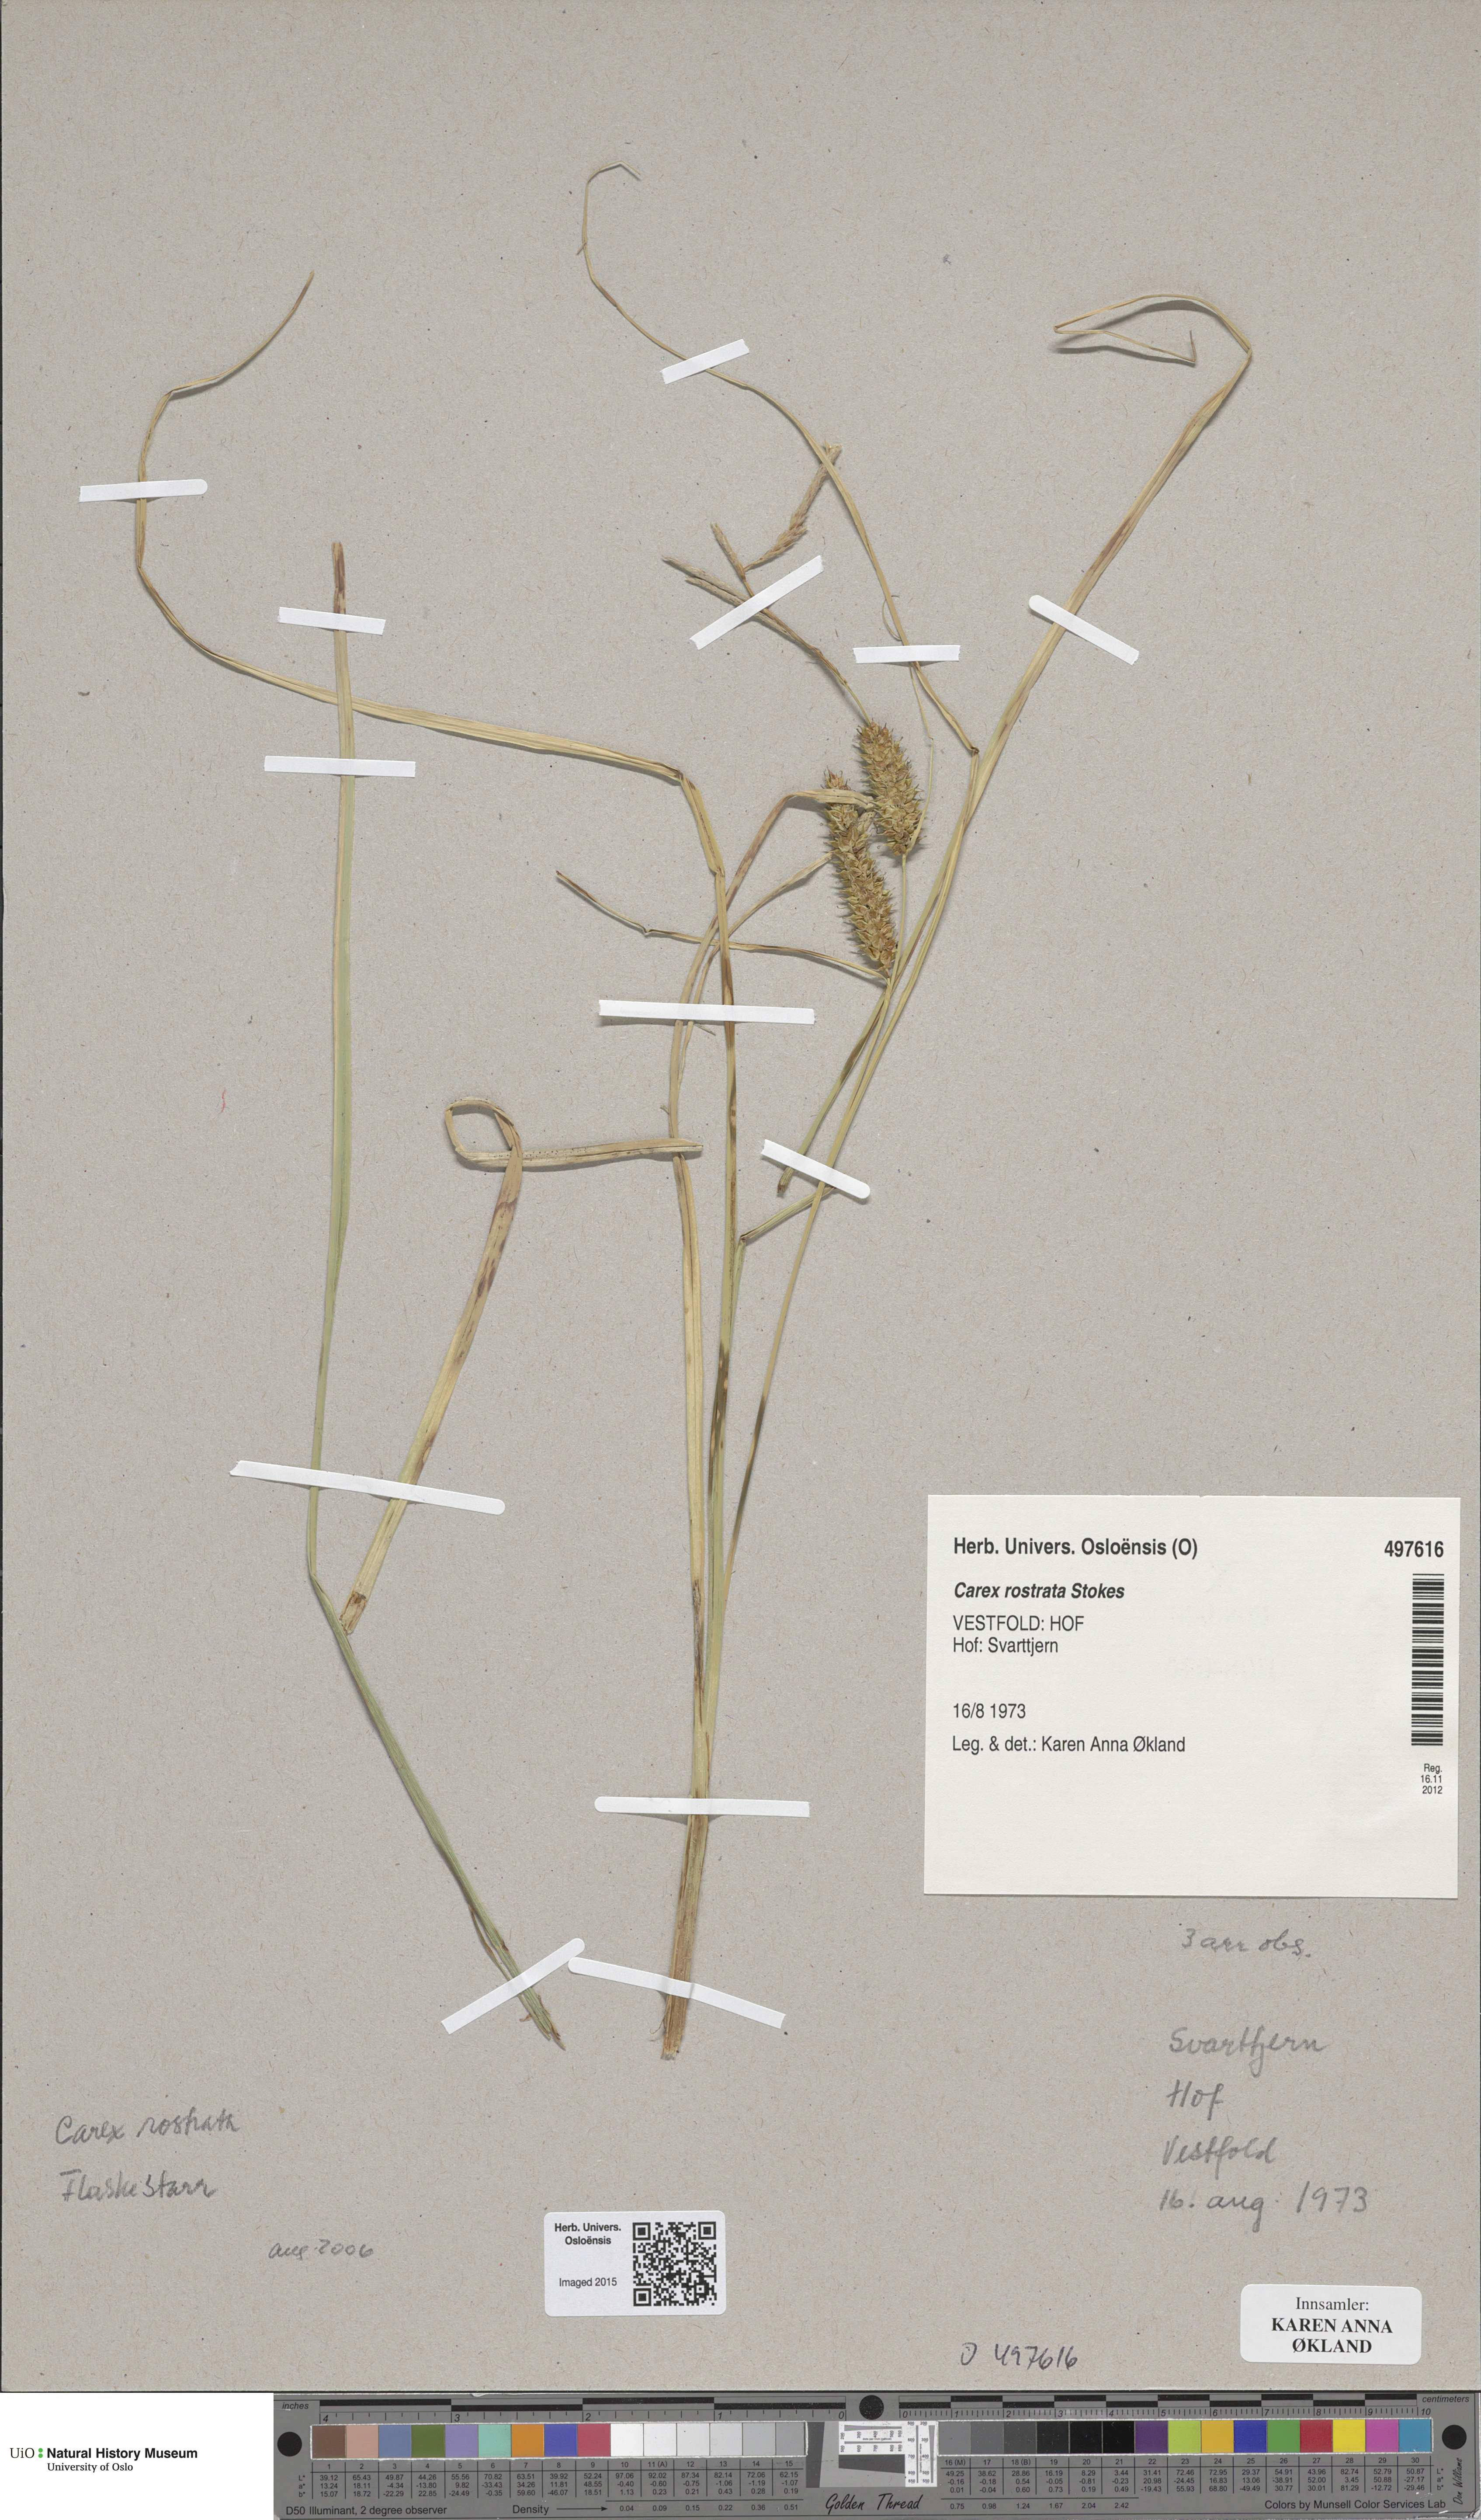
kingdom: Plantae
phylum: Tracheophyta
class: Liliopsida
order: Poales
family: Cyperaceae
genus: Carex
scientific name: Carex rostrata
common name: Bottle sedge
